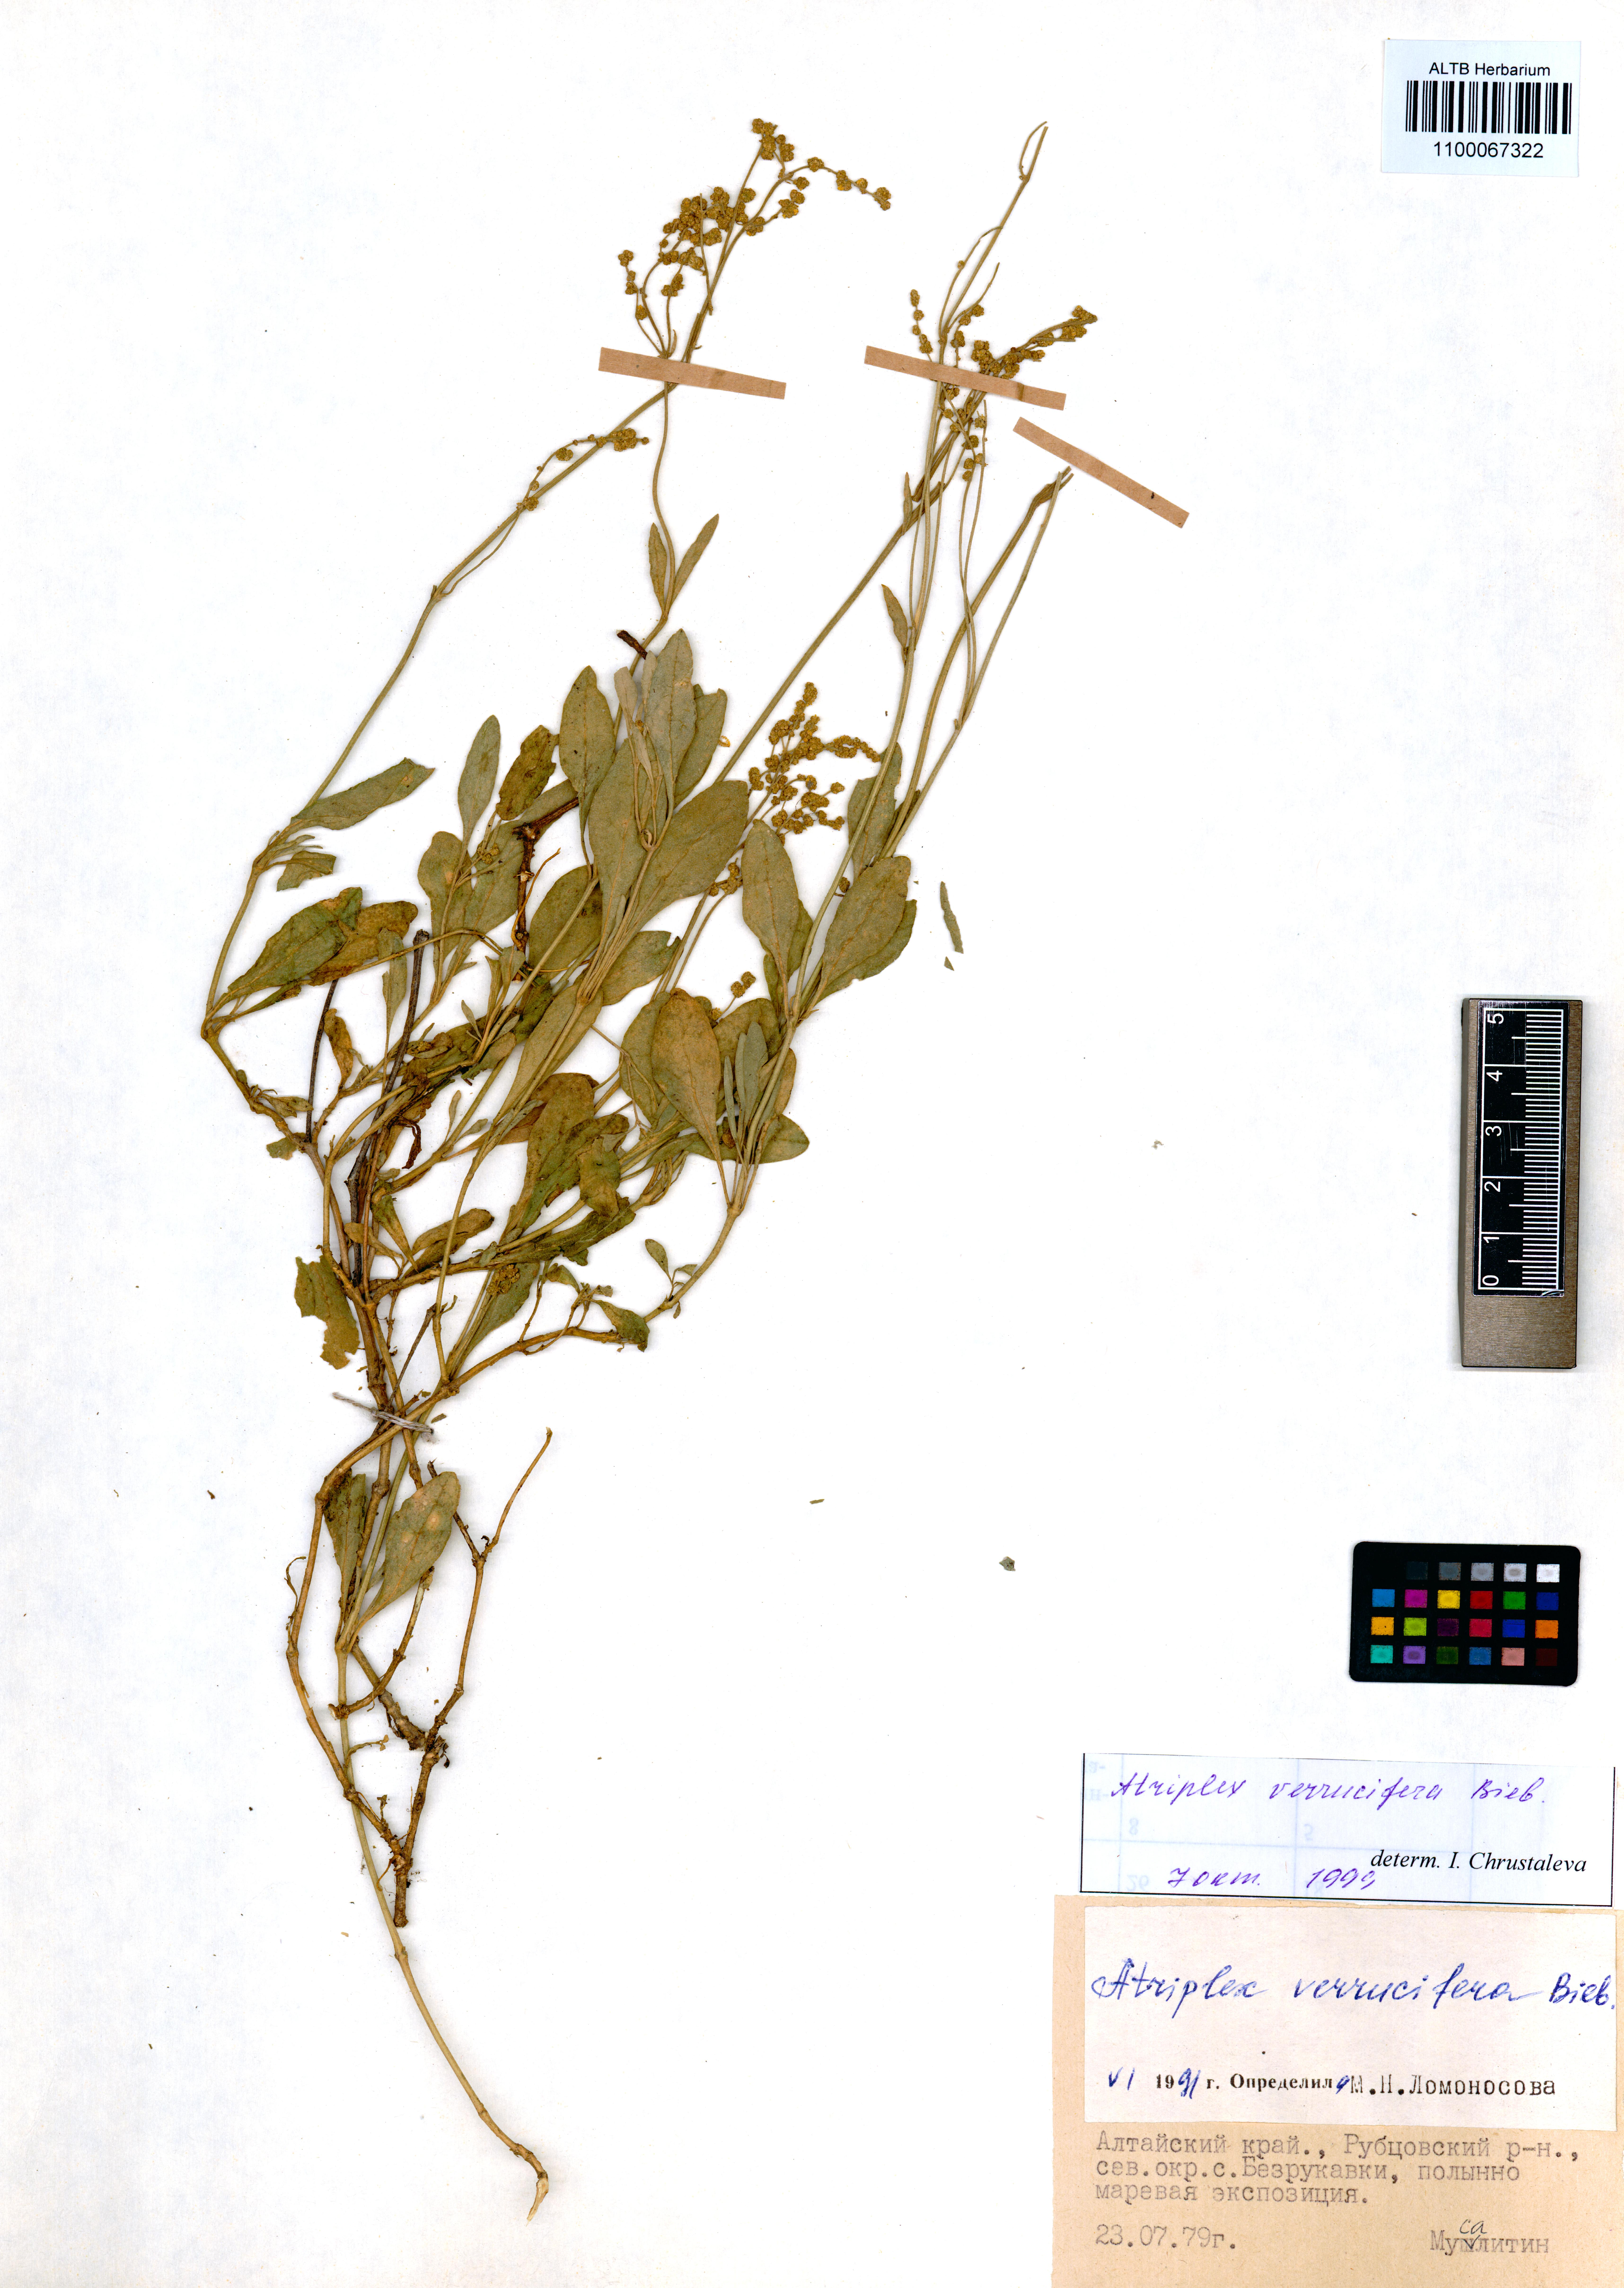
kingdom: Plantae
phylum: Tracheophyta
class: Magnoliopsida
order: Caryophyllales
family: Amaranthaceae
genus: Halimione
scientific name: Halimione verrucifera
